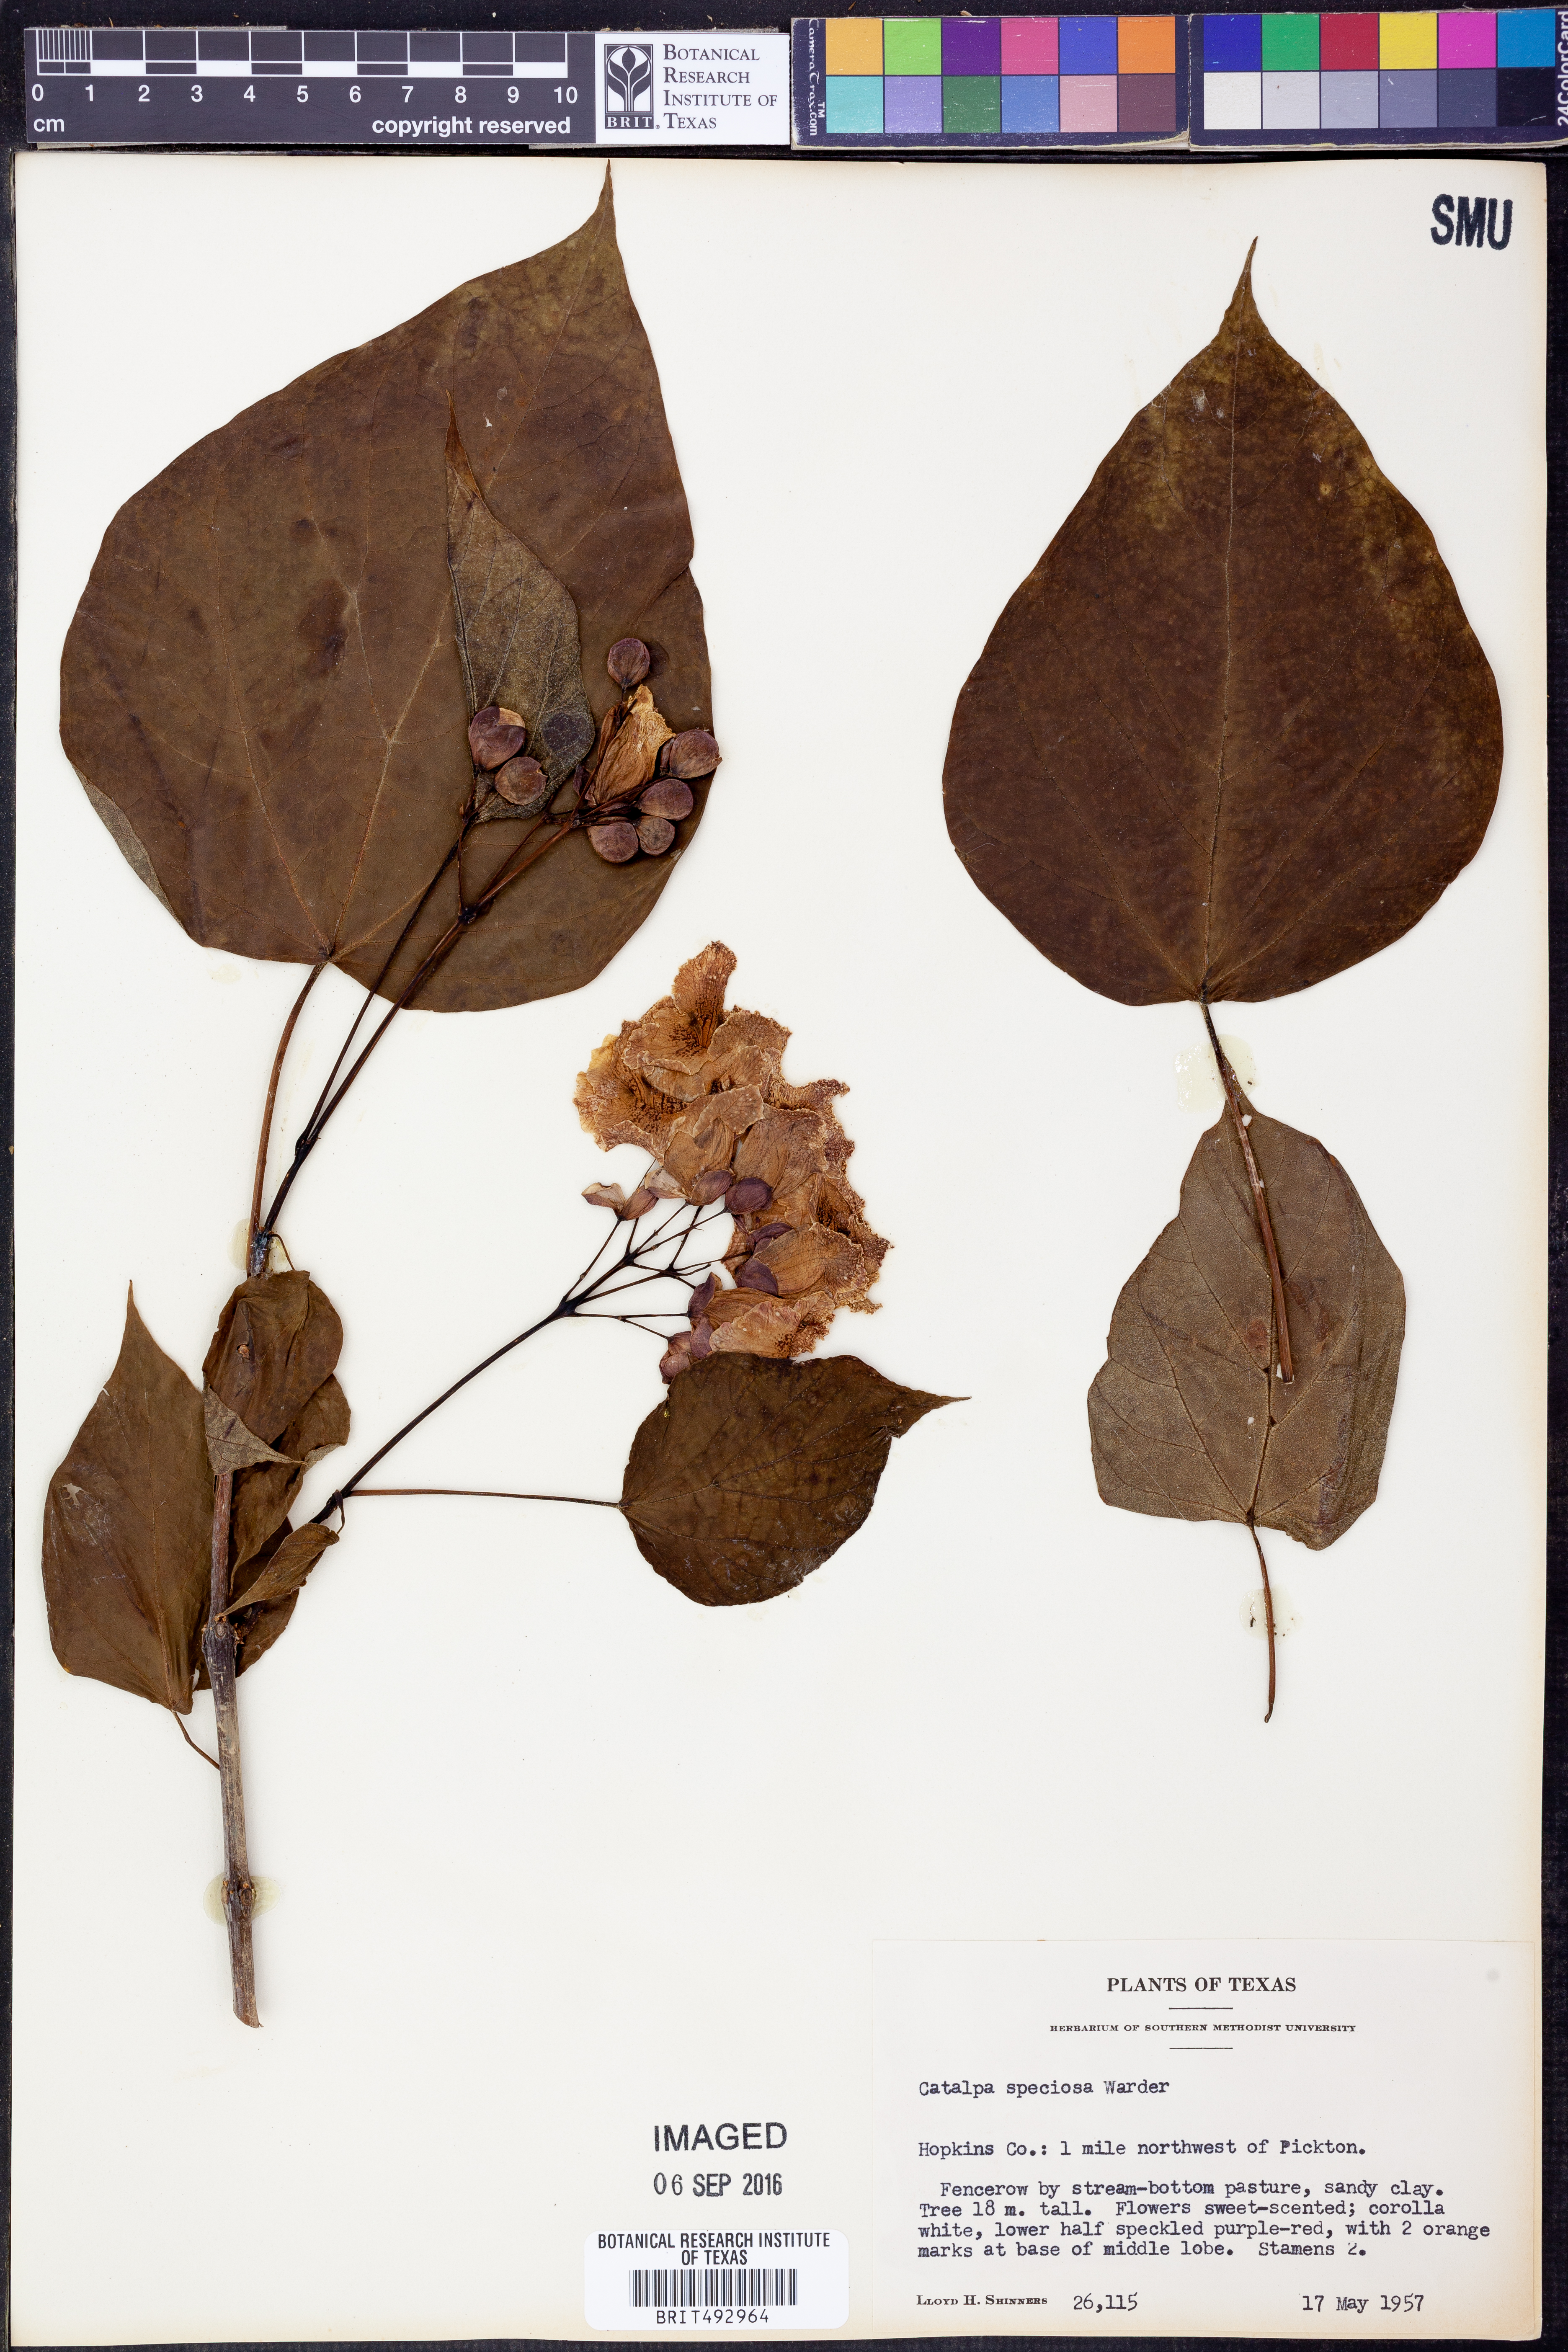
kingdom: Plantae
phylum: Tracheophyta
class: Magnoliopsida
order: Lamiales
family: Bignoniaceae
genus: Catalpa
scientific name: Catalpa speciosa
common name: Northern catalpa
